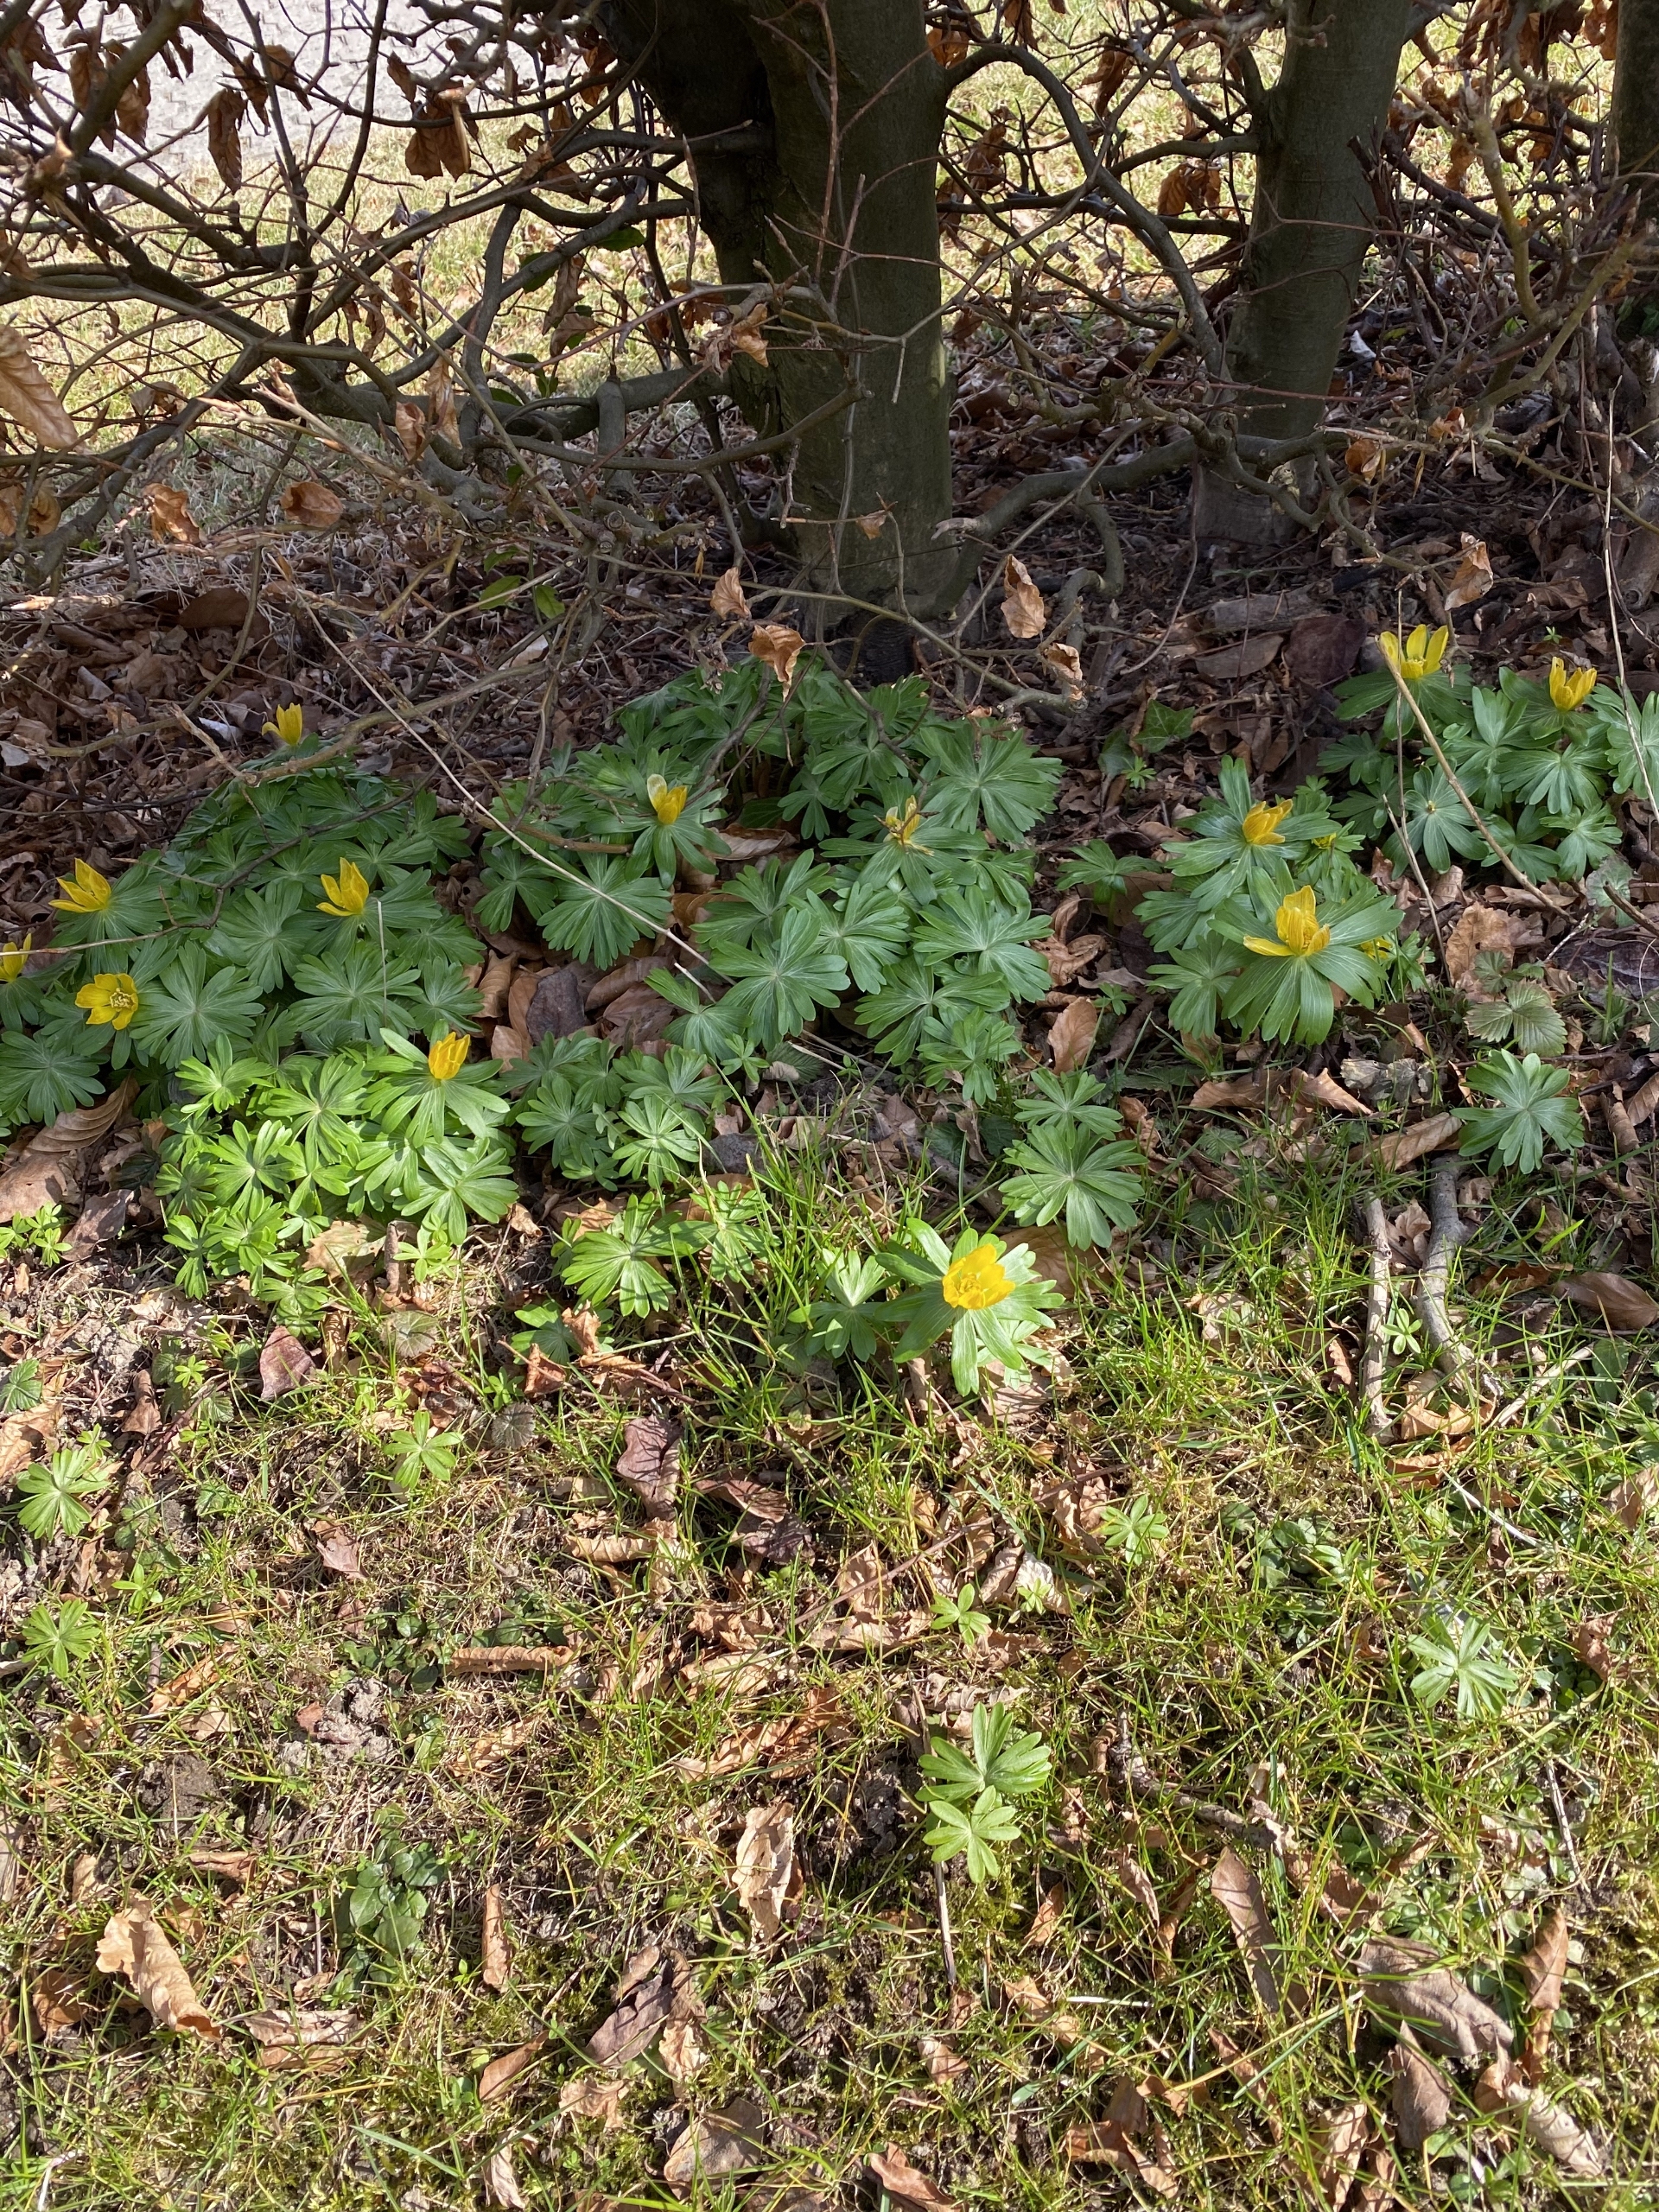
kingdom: Plantae
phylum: Tracheophyta
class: Magnoliopsida
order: Ranunculales
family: Ranunculaceae
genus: Eranthis
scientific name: Eranthis hyemalis
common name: Erantis
